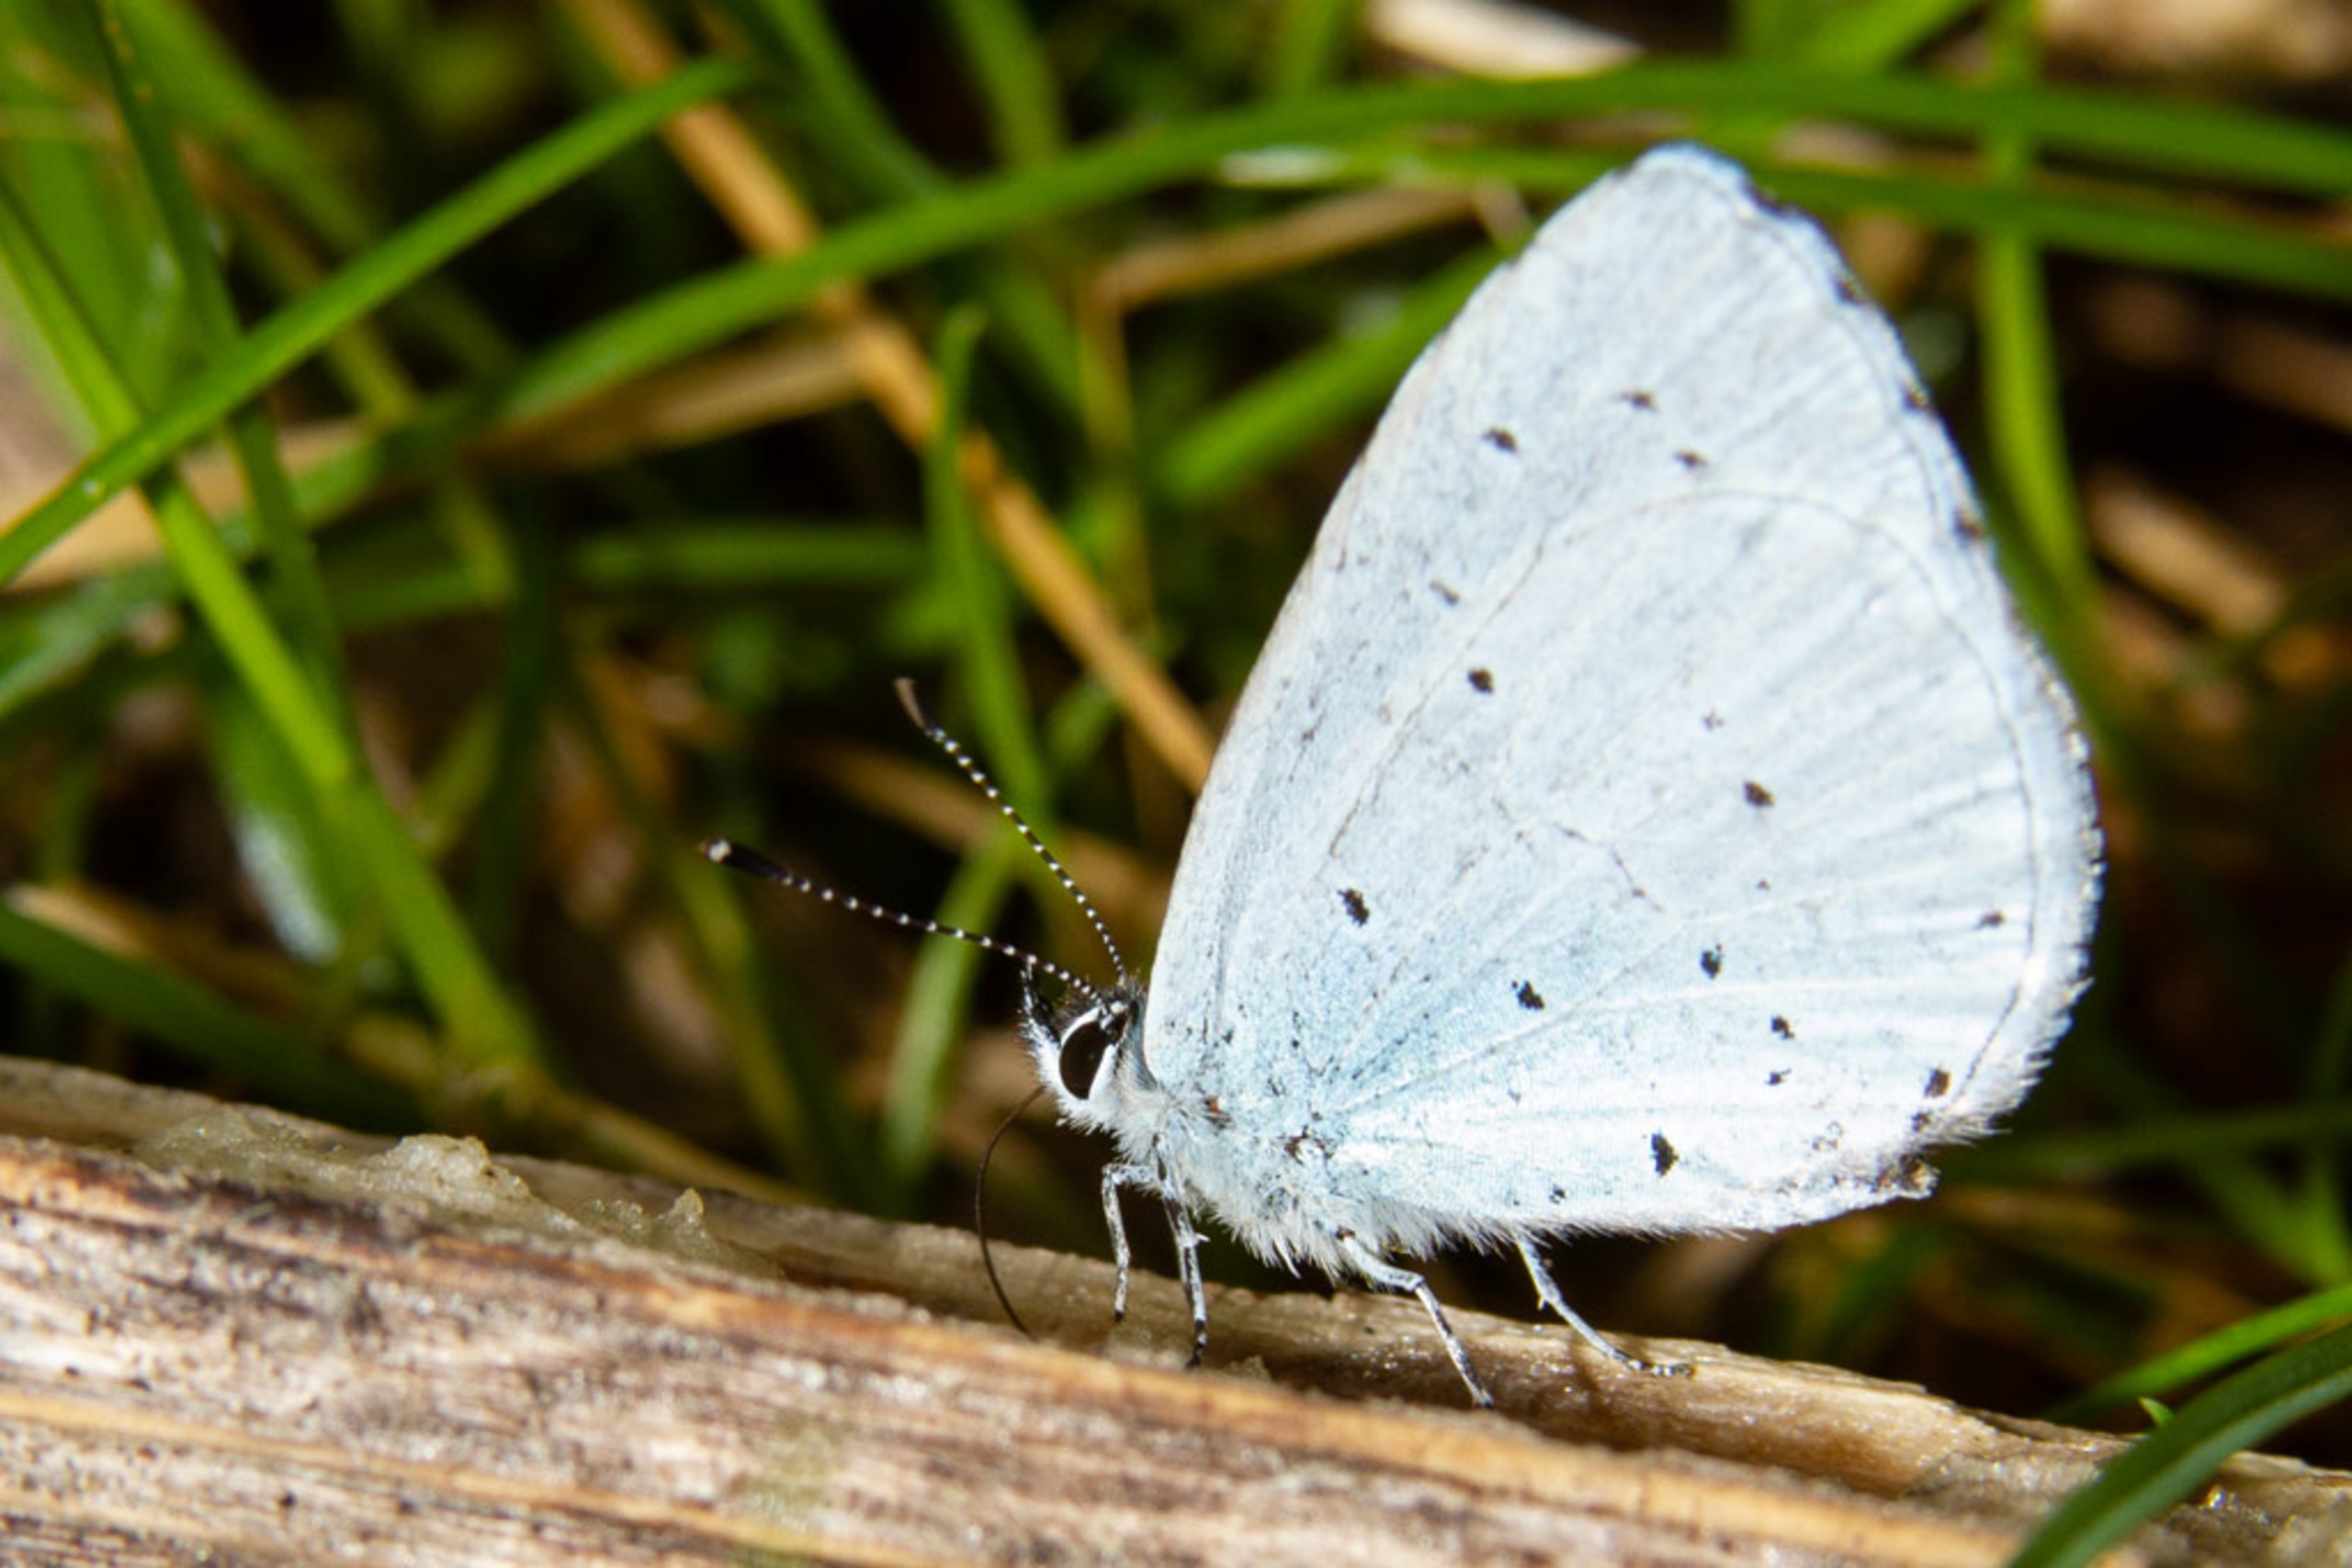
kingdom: Animalia
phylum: Arthropoda
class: Insecta
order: Lepidoptera
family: Lycaenidae
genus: Celastrina
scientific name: Celastrina argiolus
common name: Skovblåfugl
